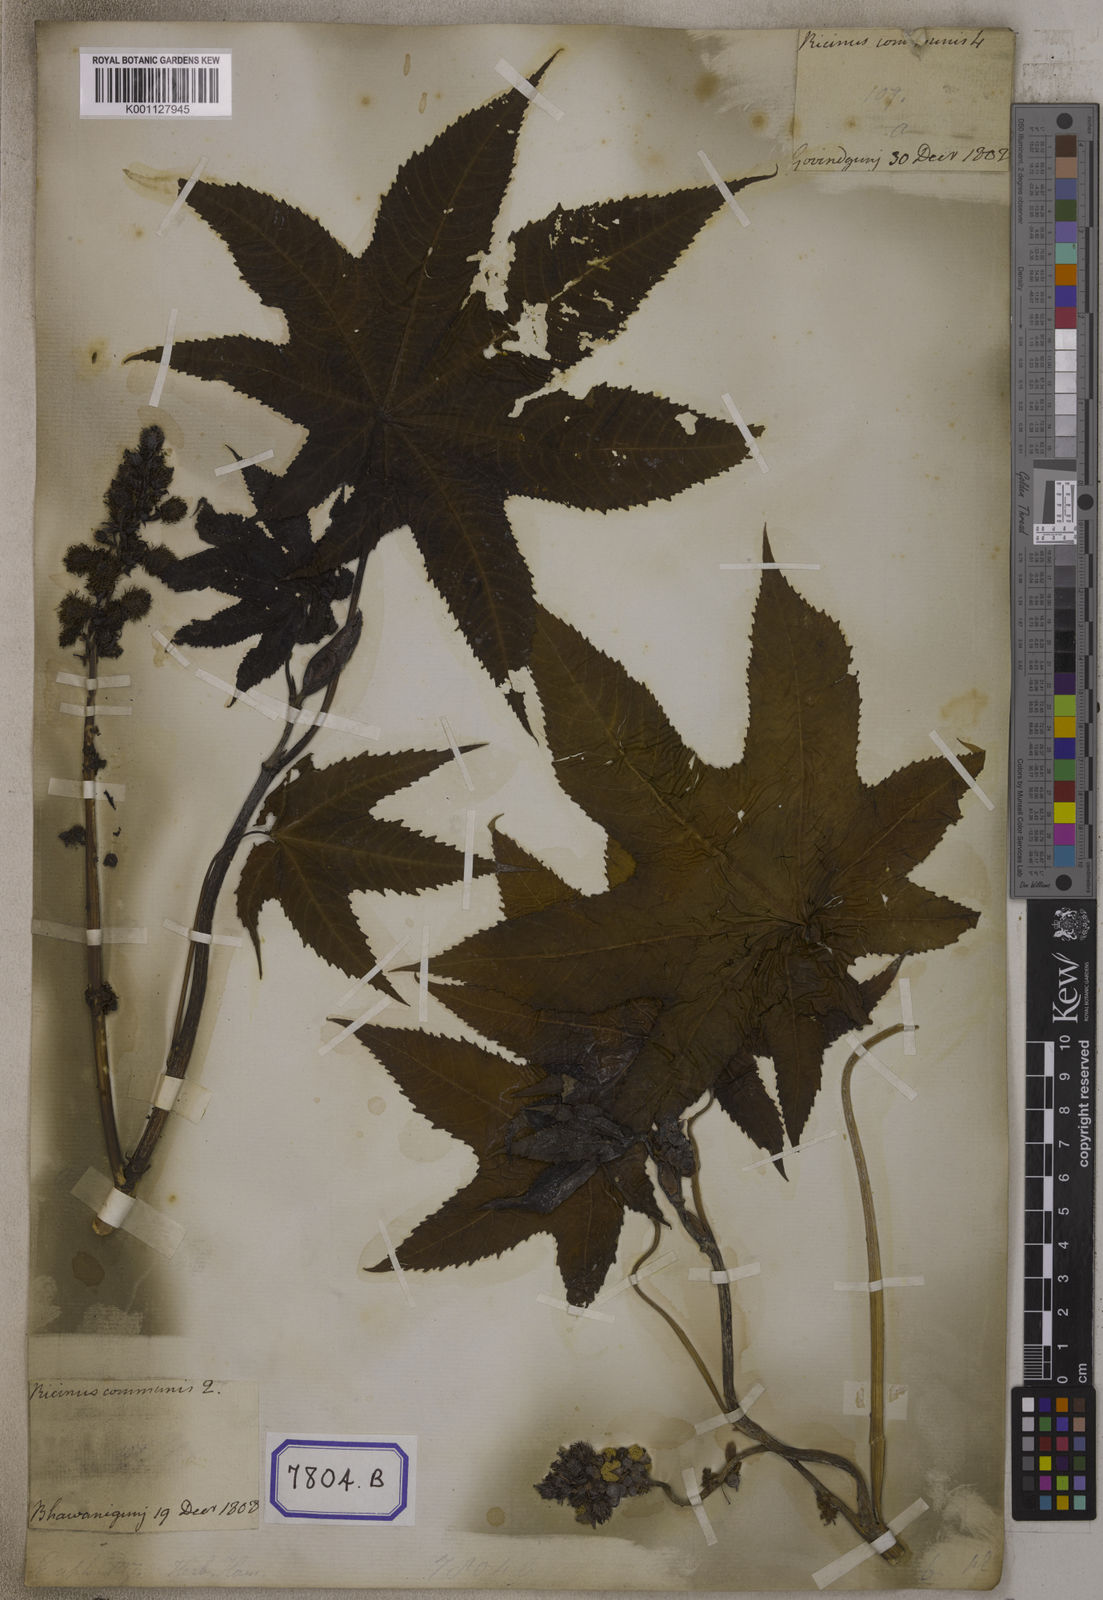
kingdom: Plantae
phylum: Tracheophyta
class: Magnoliopsida
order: Malpighiales
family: Euphorbiaceae
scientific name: Euphorbiaceae
